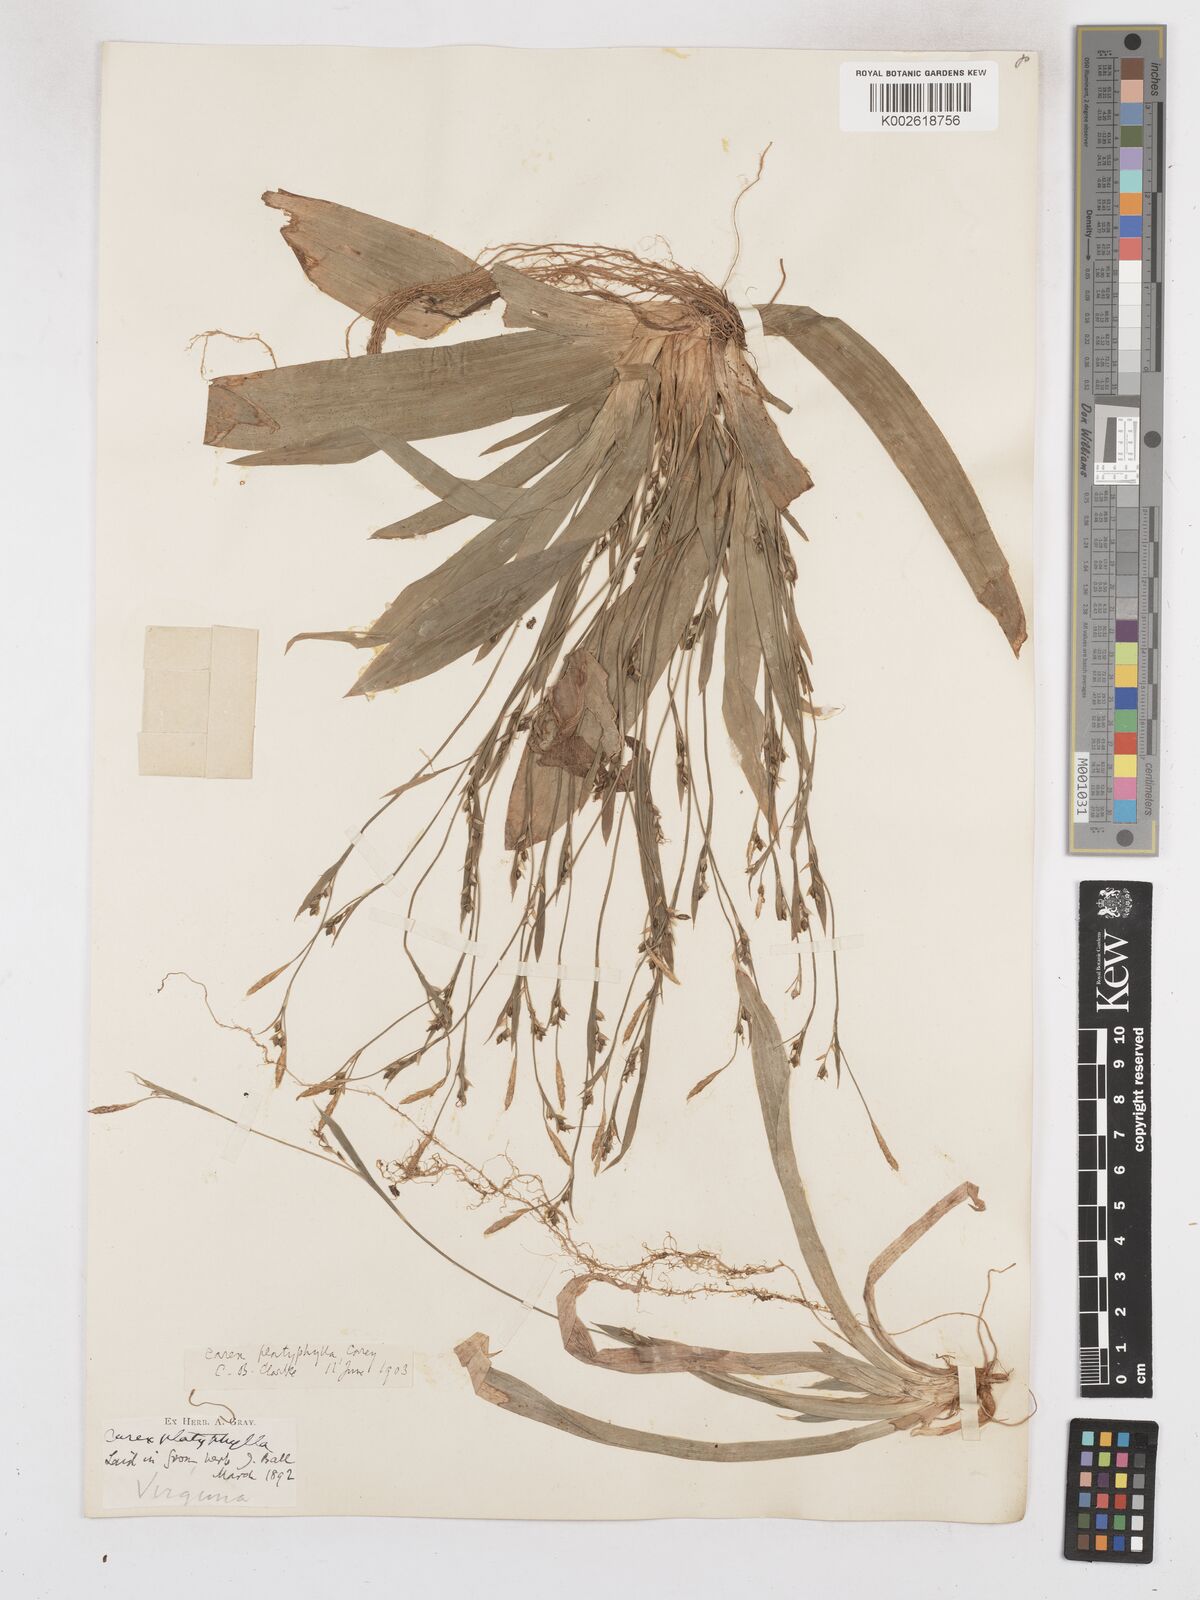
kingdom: Plantae
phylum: Tracheophyta
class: Liliopsida
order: Poales
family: Cyperaceae
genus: Carex
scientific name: Carex platyphylla
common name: Broad-leaved sedge
